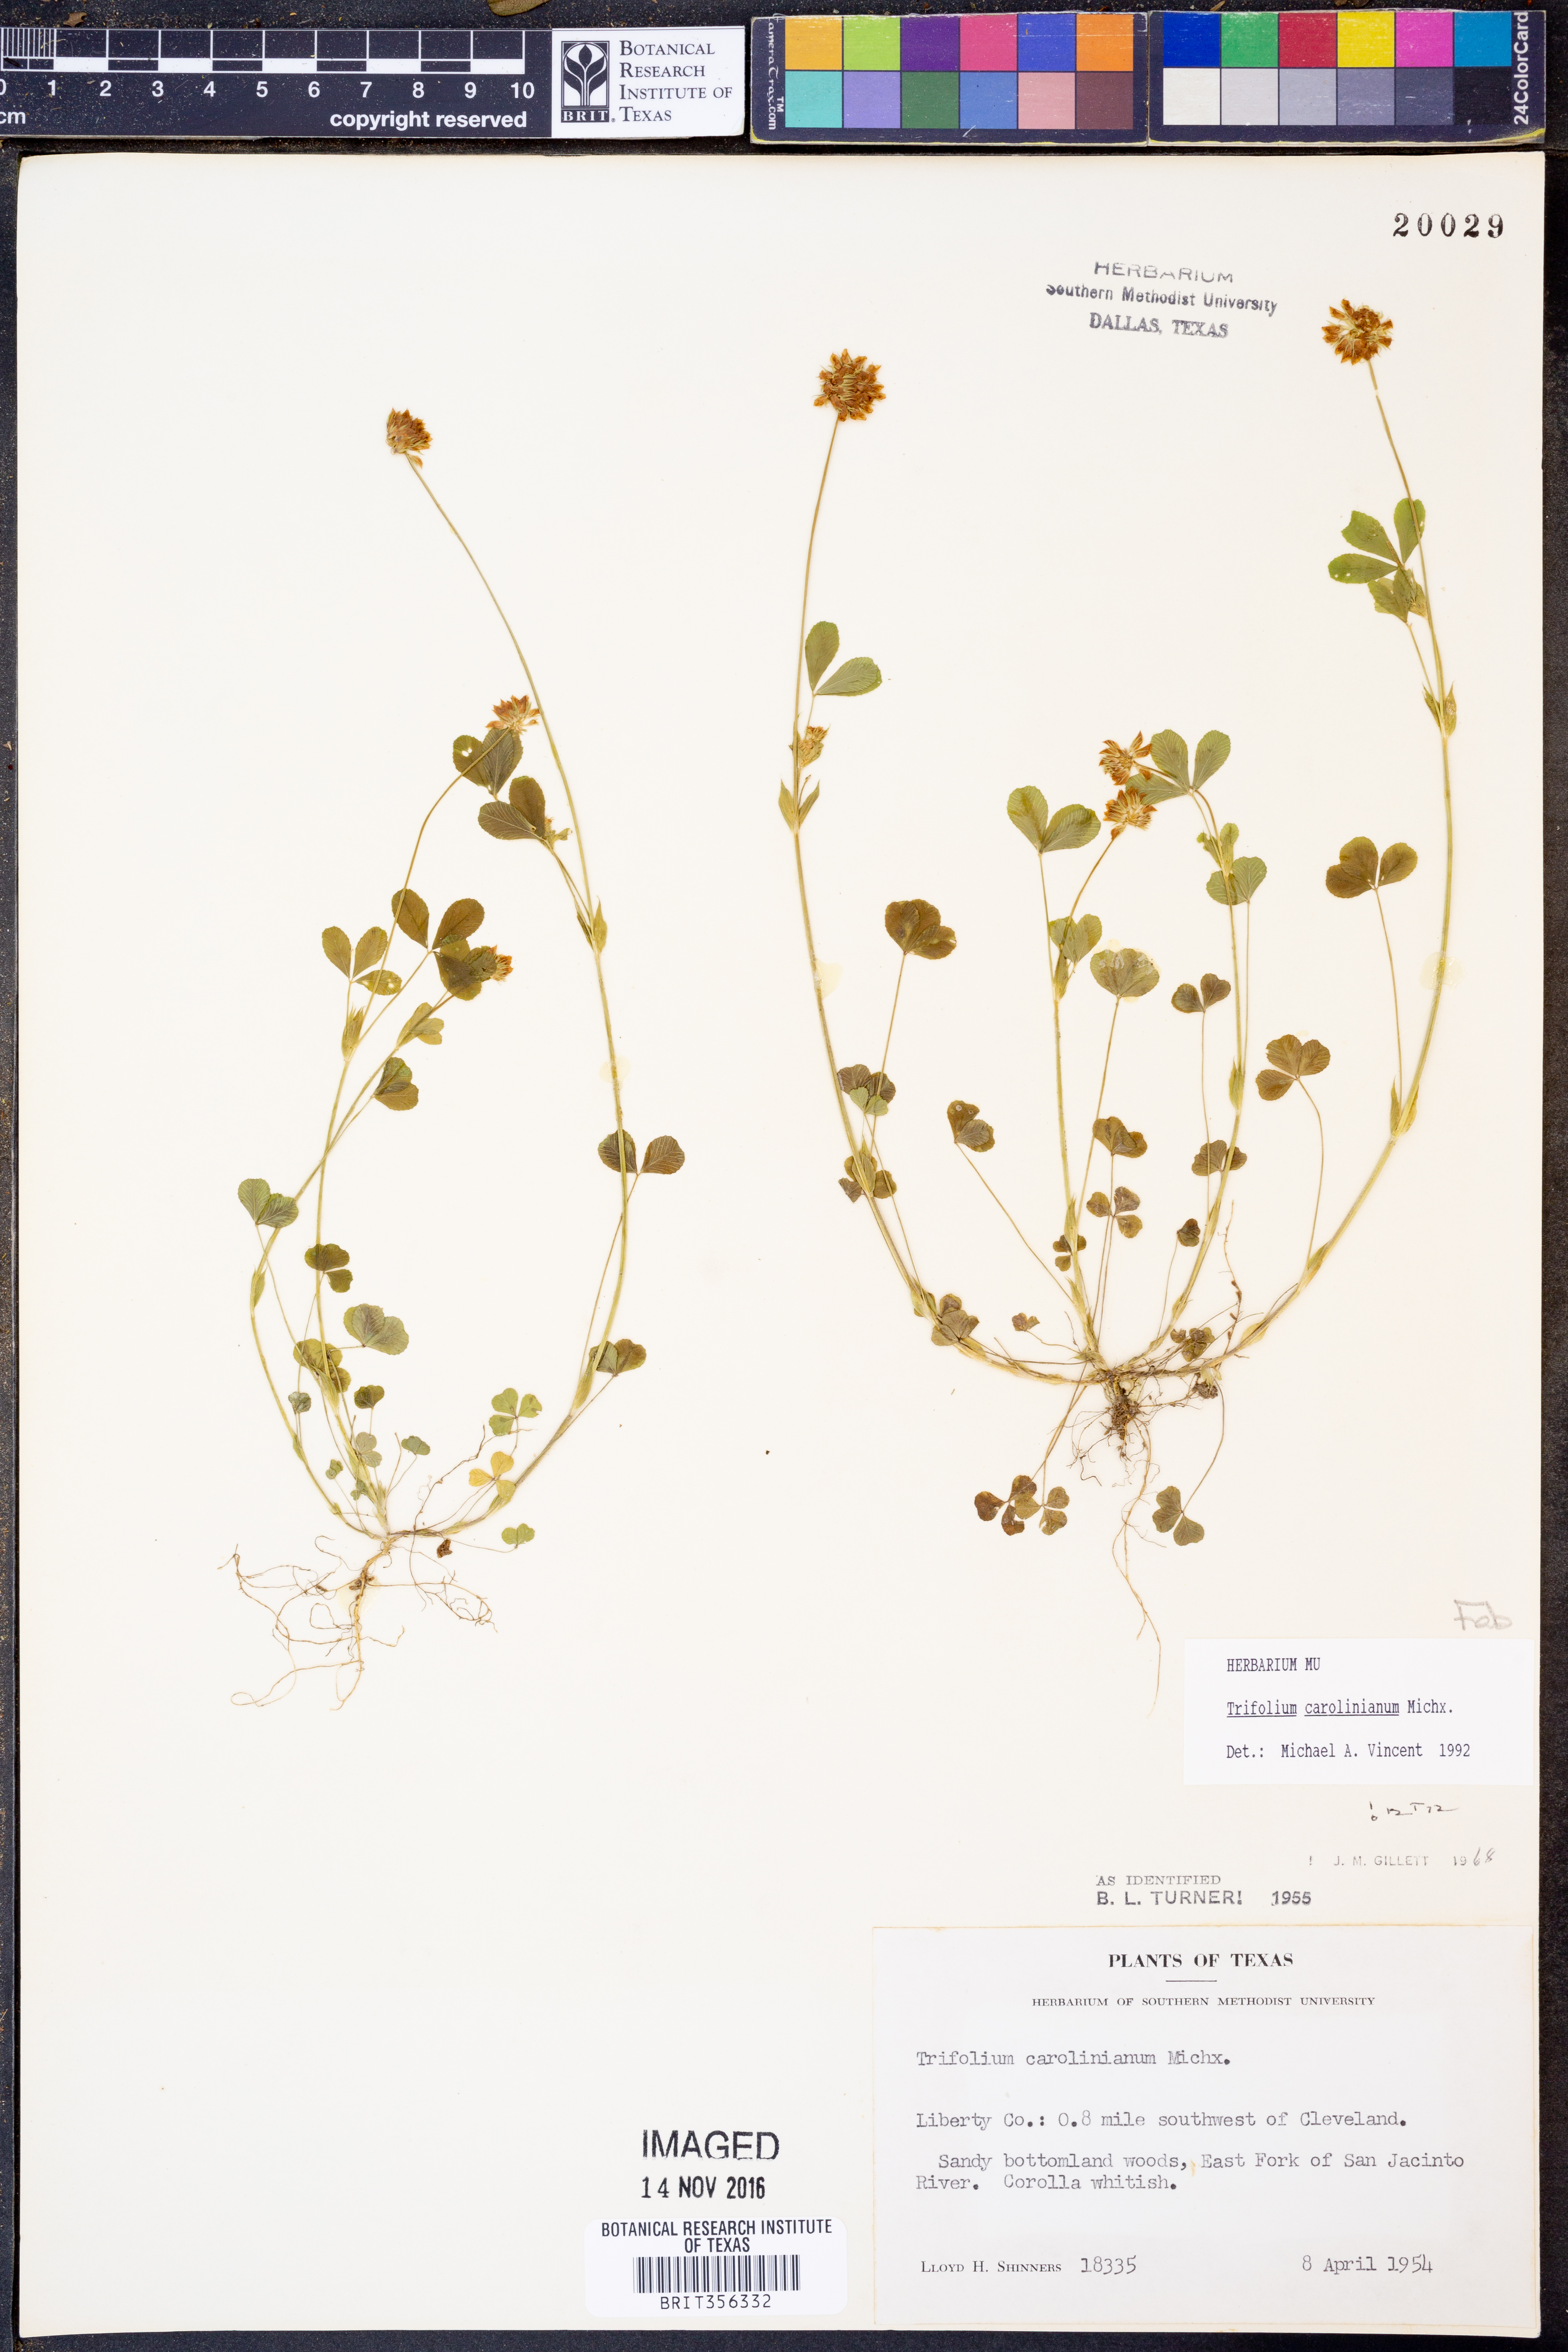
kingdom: Plantae
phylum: Tracheophyta
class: Magnoliopsida
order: Fabales
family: Fabaceae
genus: Trifolium
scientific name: Trifolium carolinianum
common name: Wild white clover
